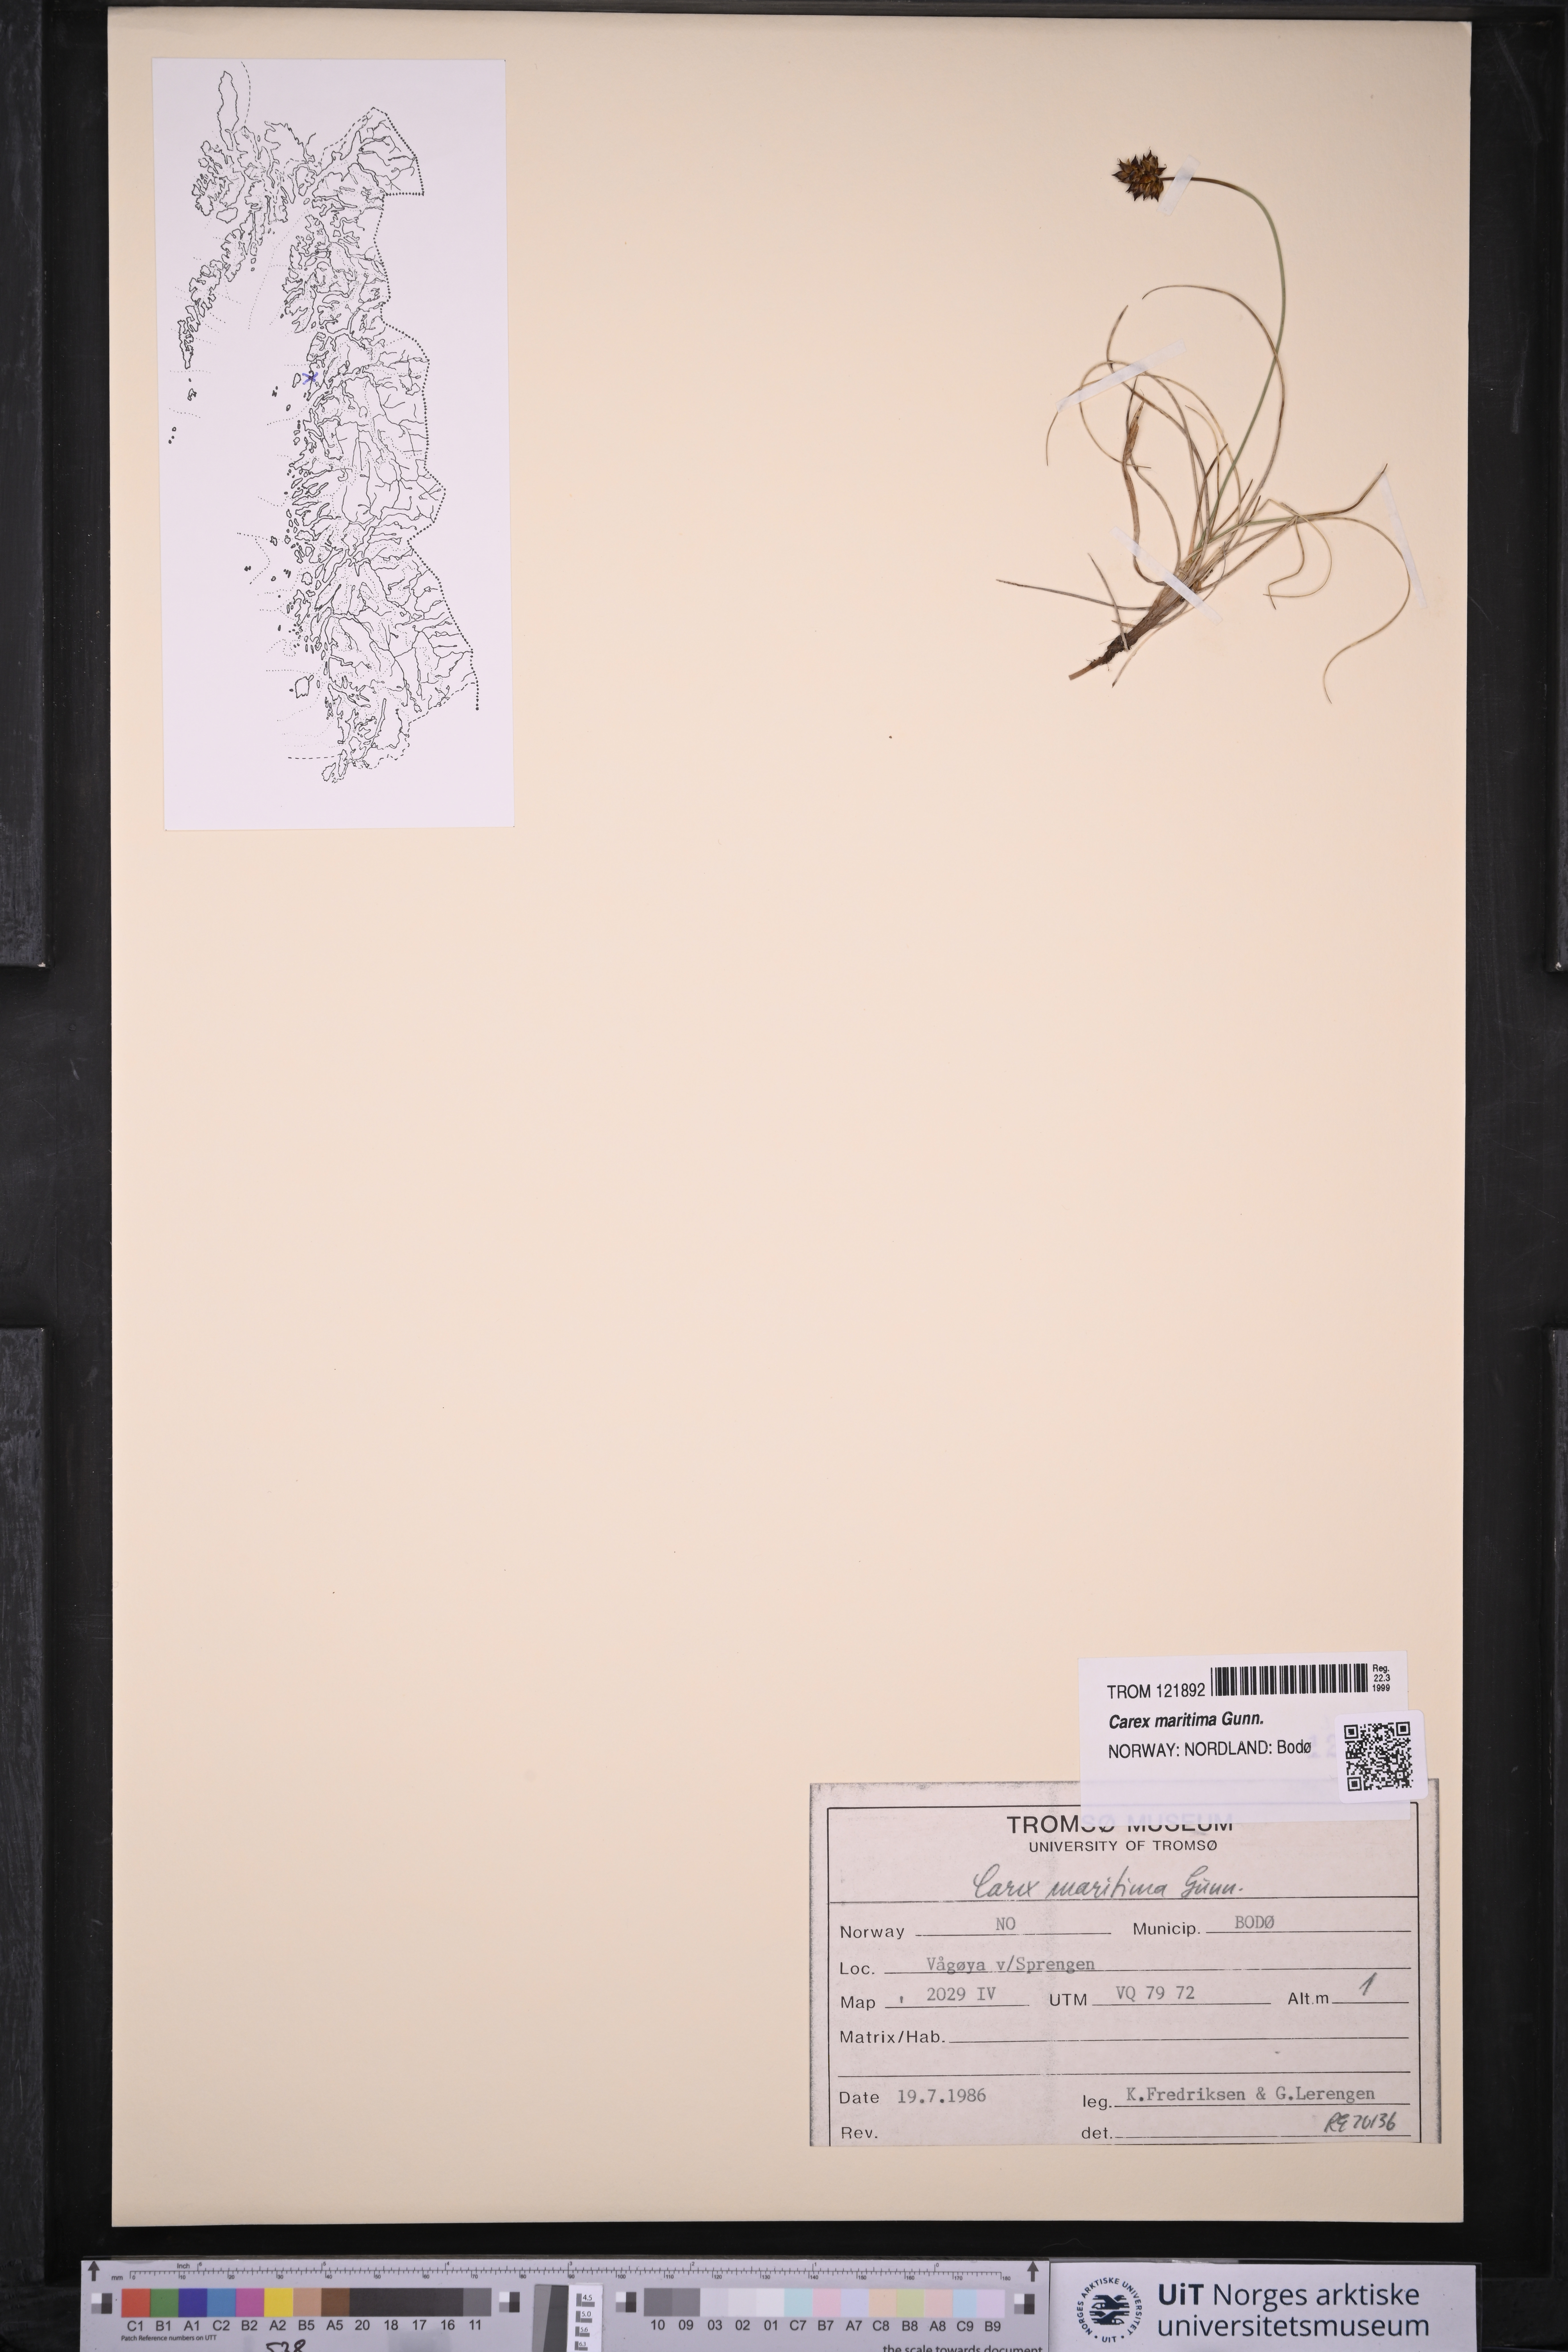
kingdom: Plantae
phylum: Tracheophyta
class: Liliopsida
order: Poales
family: Cyperaceae
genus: Carex
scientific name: Carex maritima
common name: Curved sedge
